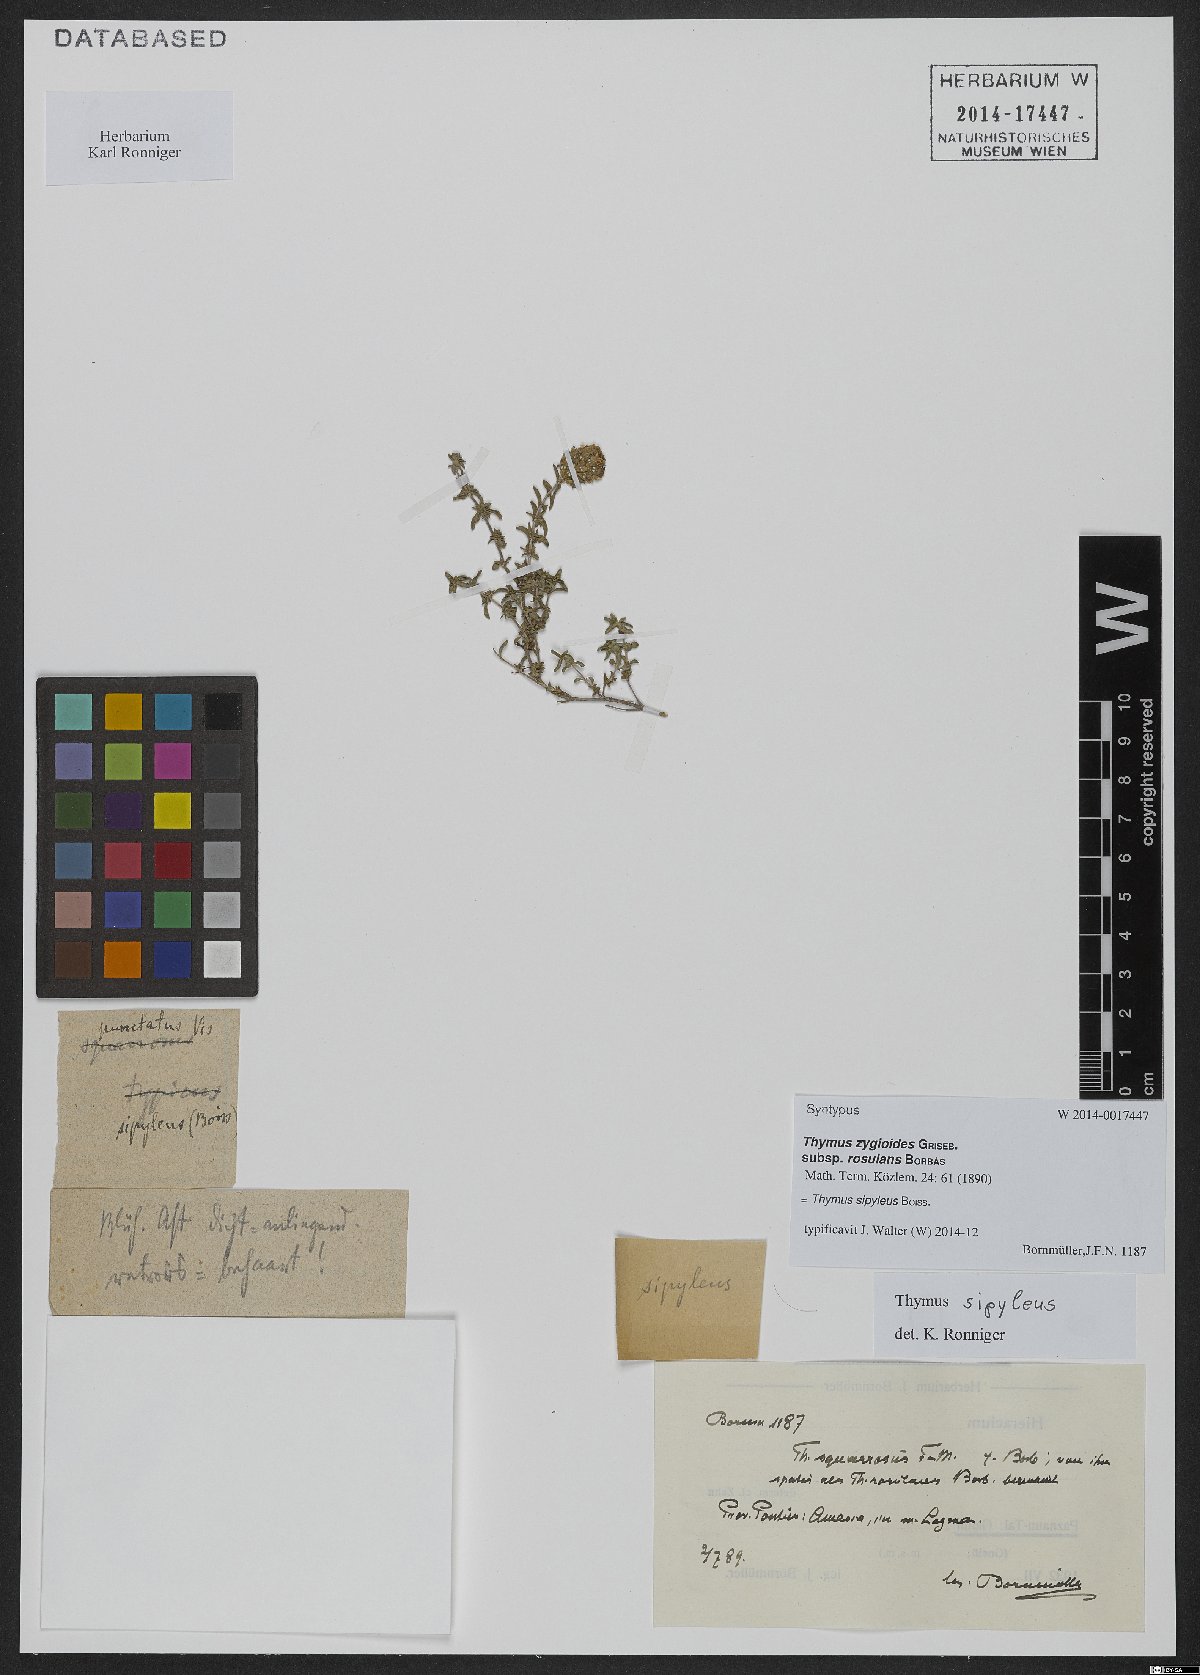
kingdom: Plantae
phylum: Tracheophyta
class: Magnoliopsida
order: Lamiales
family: Lamiaceae
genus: Thymus
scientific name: Thymus sipyleus
